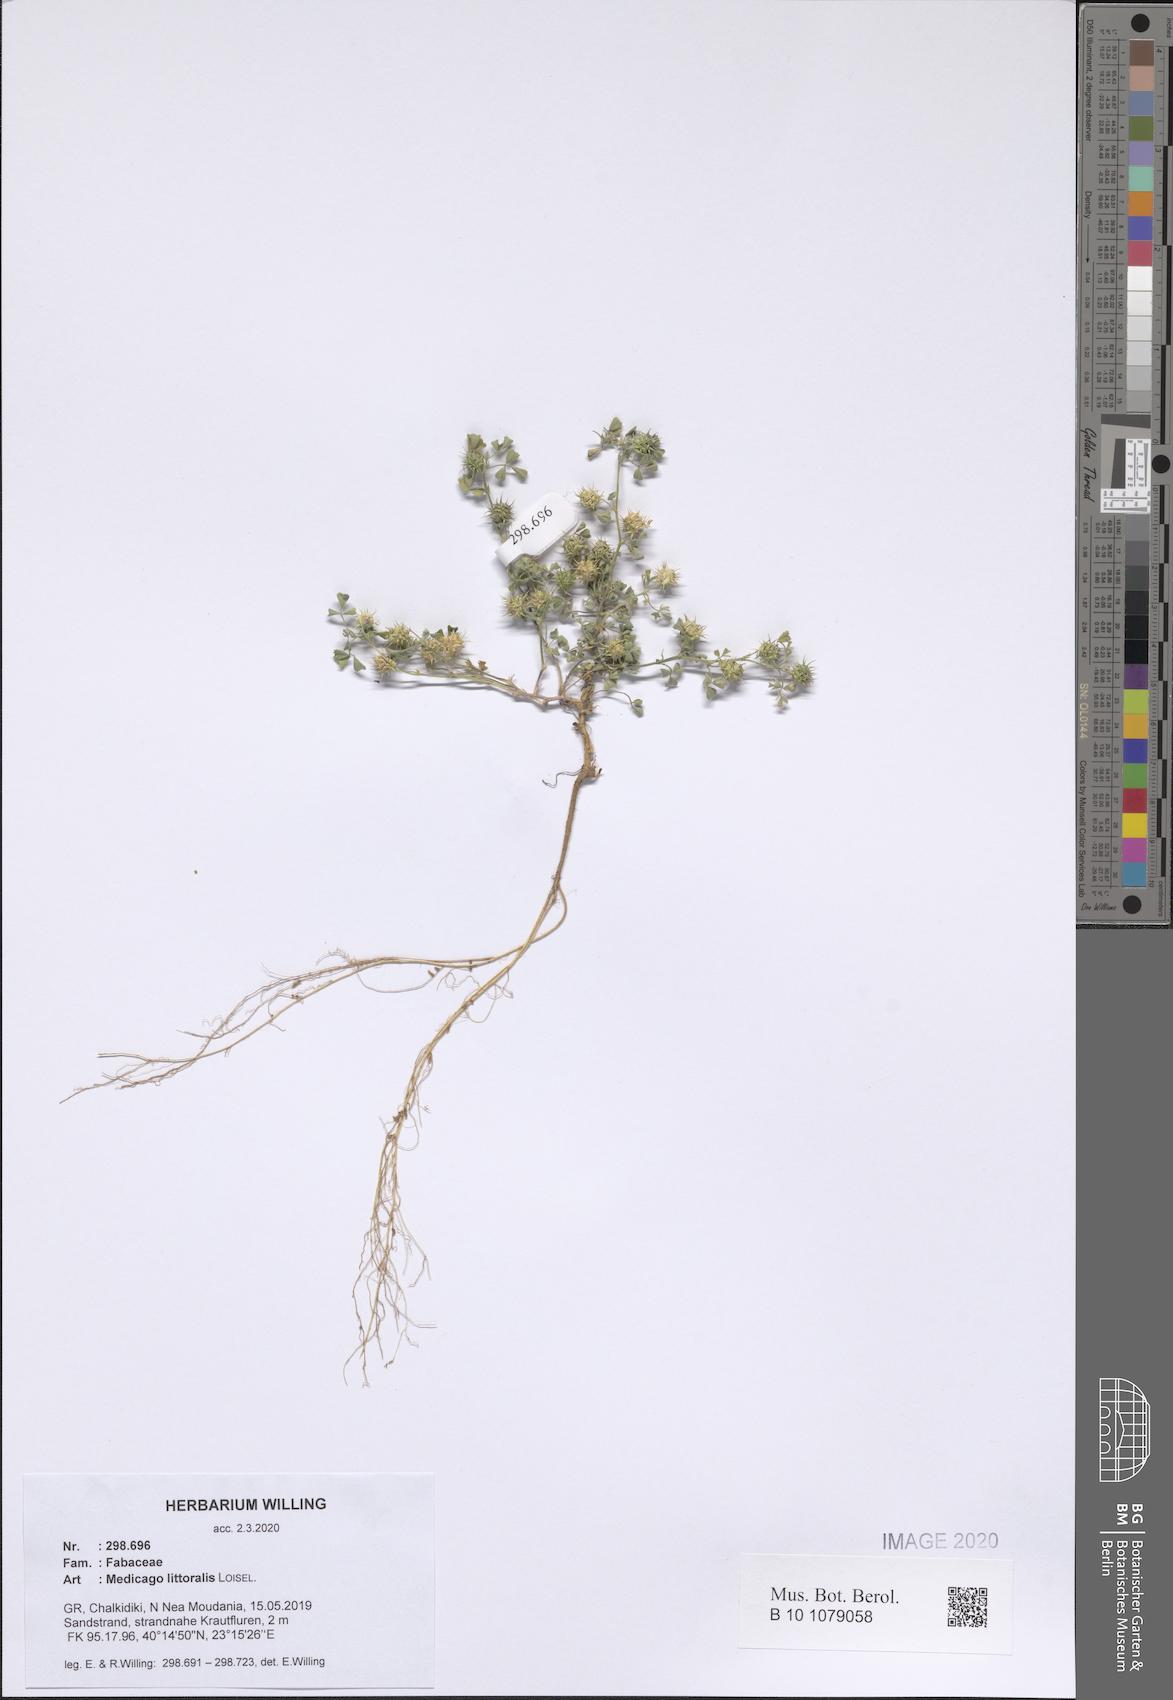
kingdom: Plantae
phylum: Tracheophyta
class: Magnoliopsida
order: Fabales
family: Fabaceae
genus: Medicago
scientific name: Medicago littoralis
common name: Shore medick
